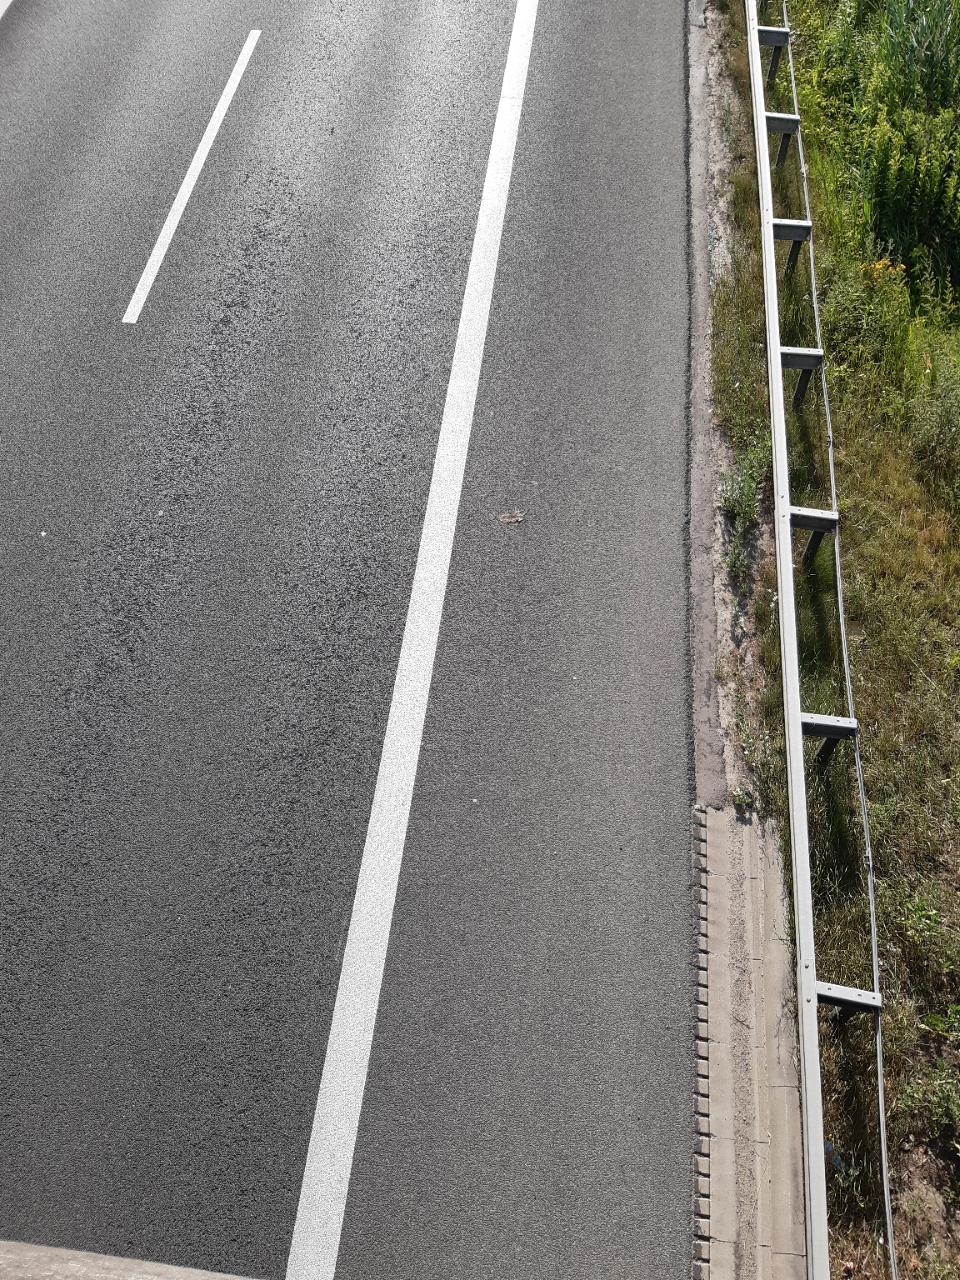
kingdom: Animalia
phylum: Chordata
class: Mammalia
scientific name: Mammalia
